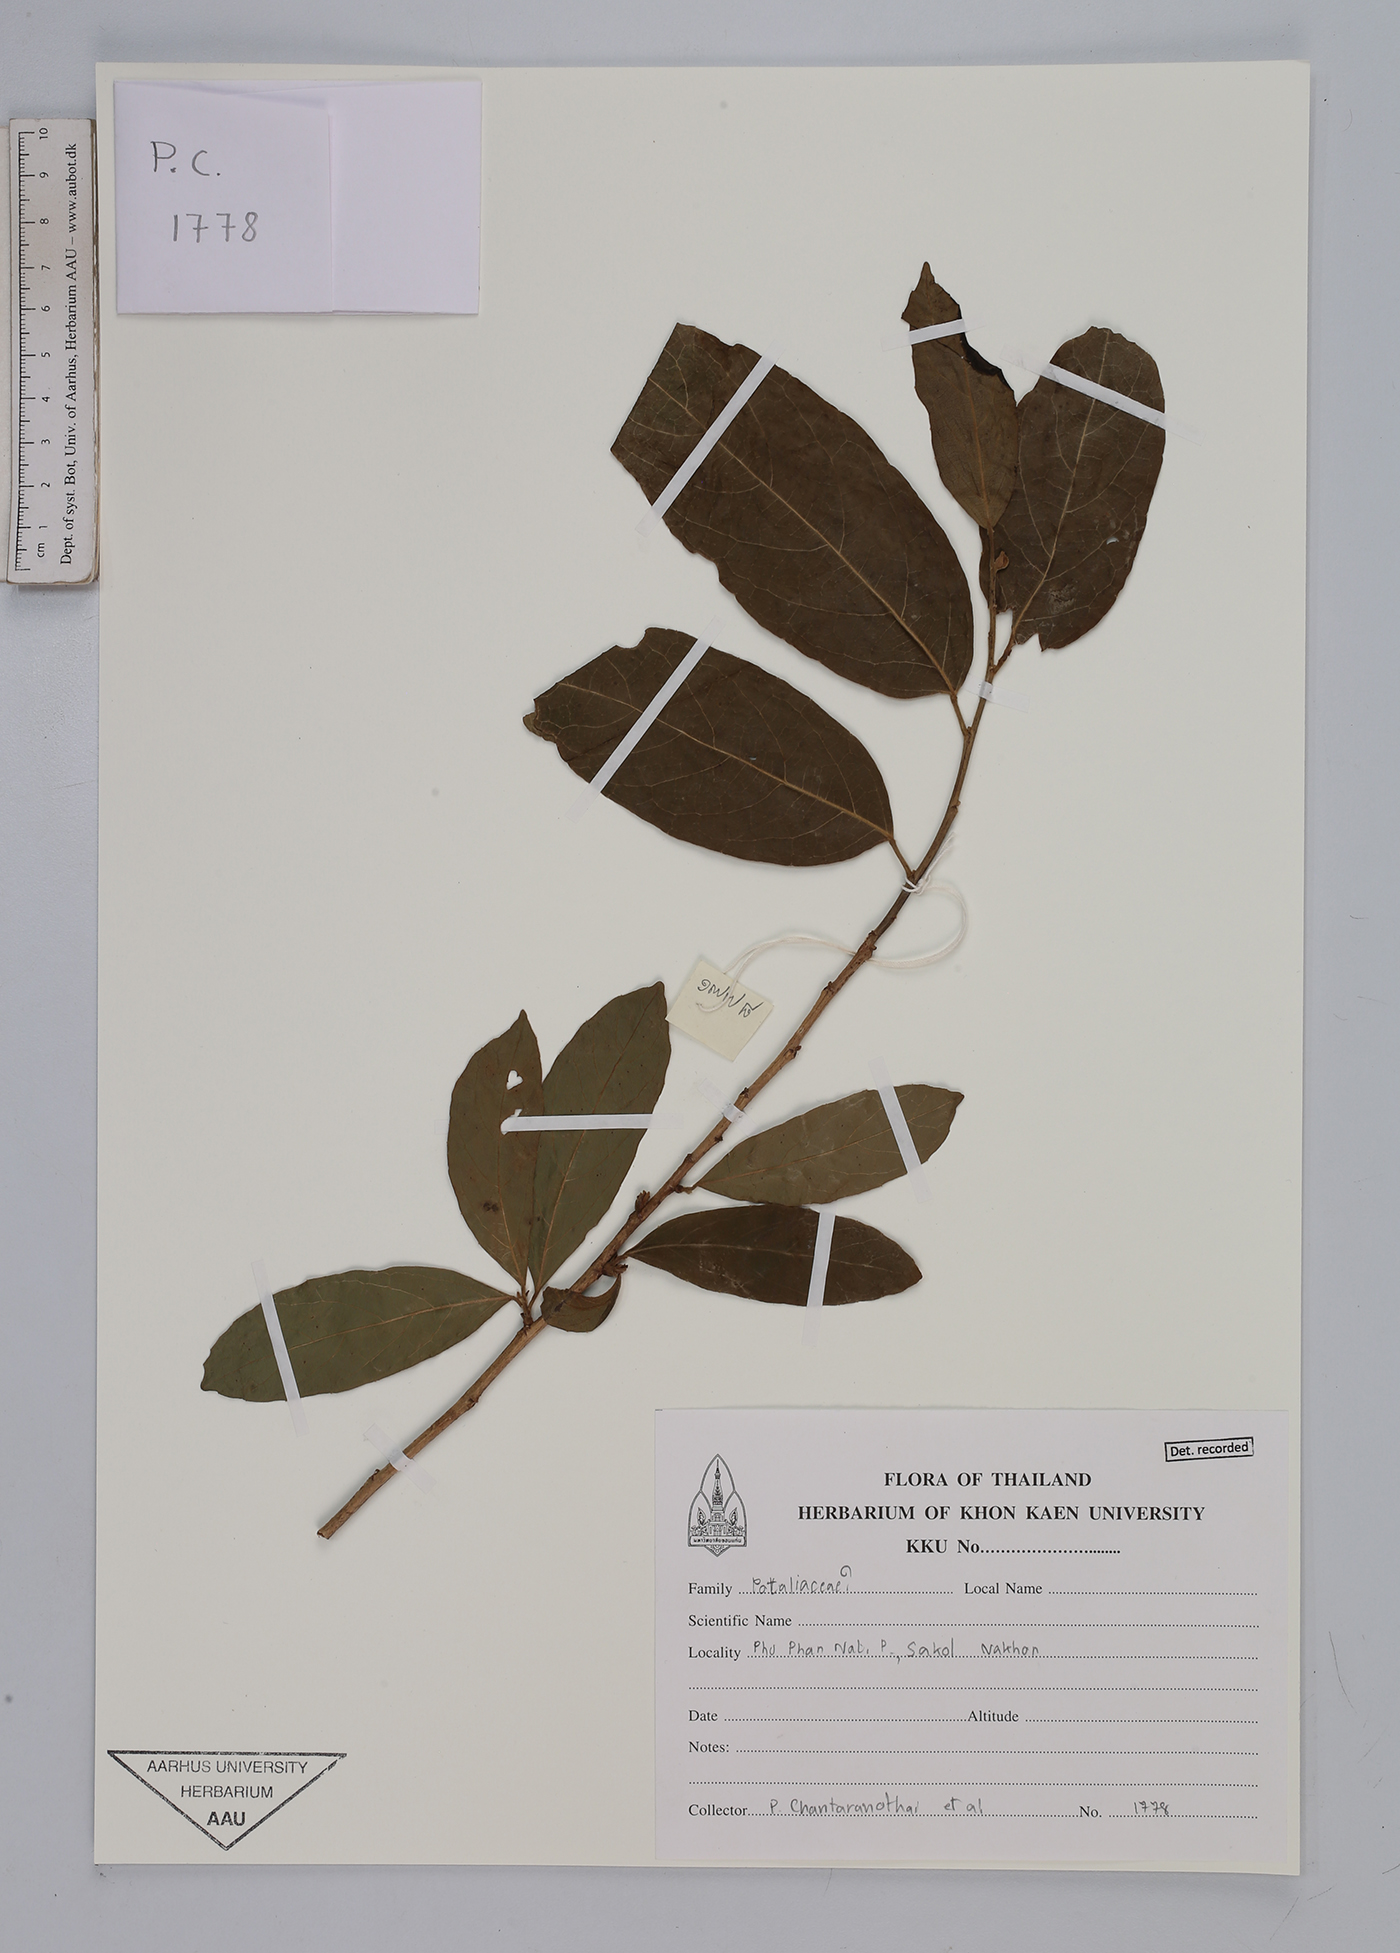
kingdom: Plantae
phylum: Tracheophyta
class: Magnoliopsida
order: Malpighiales
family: Euphorbiaceae
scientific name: Euphorbiaceae
